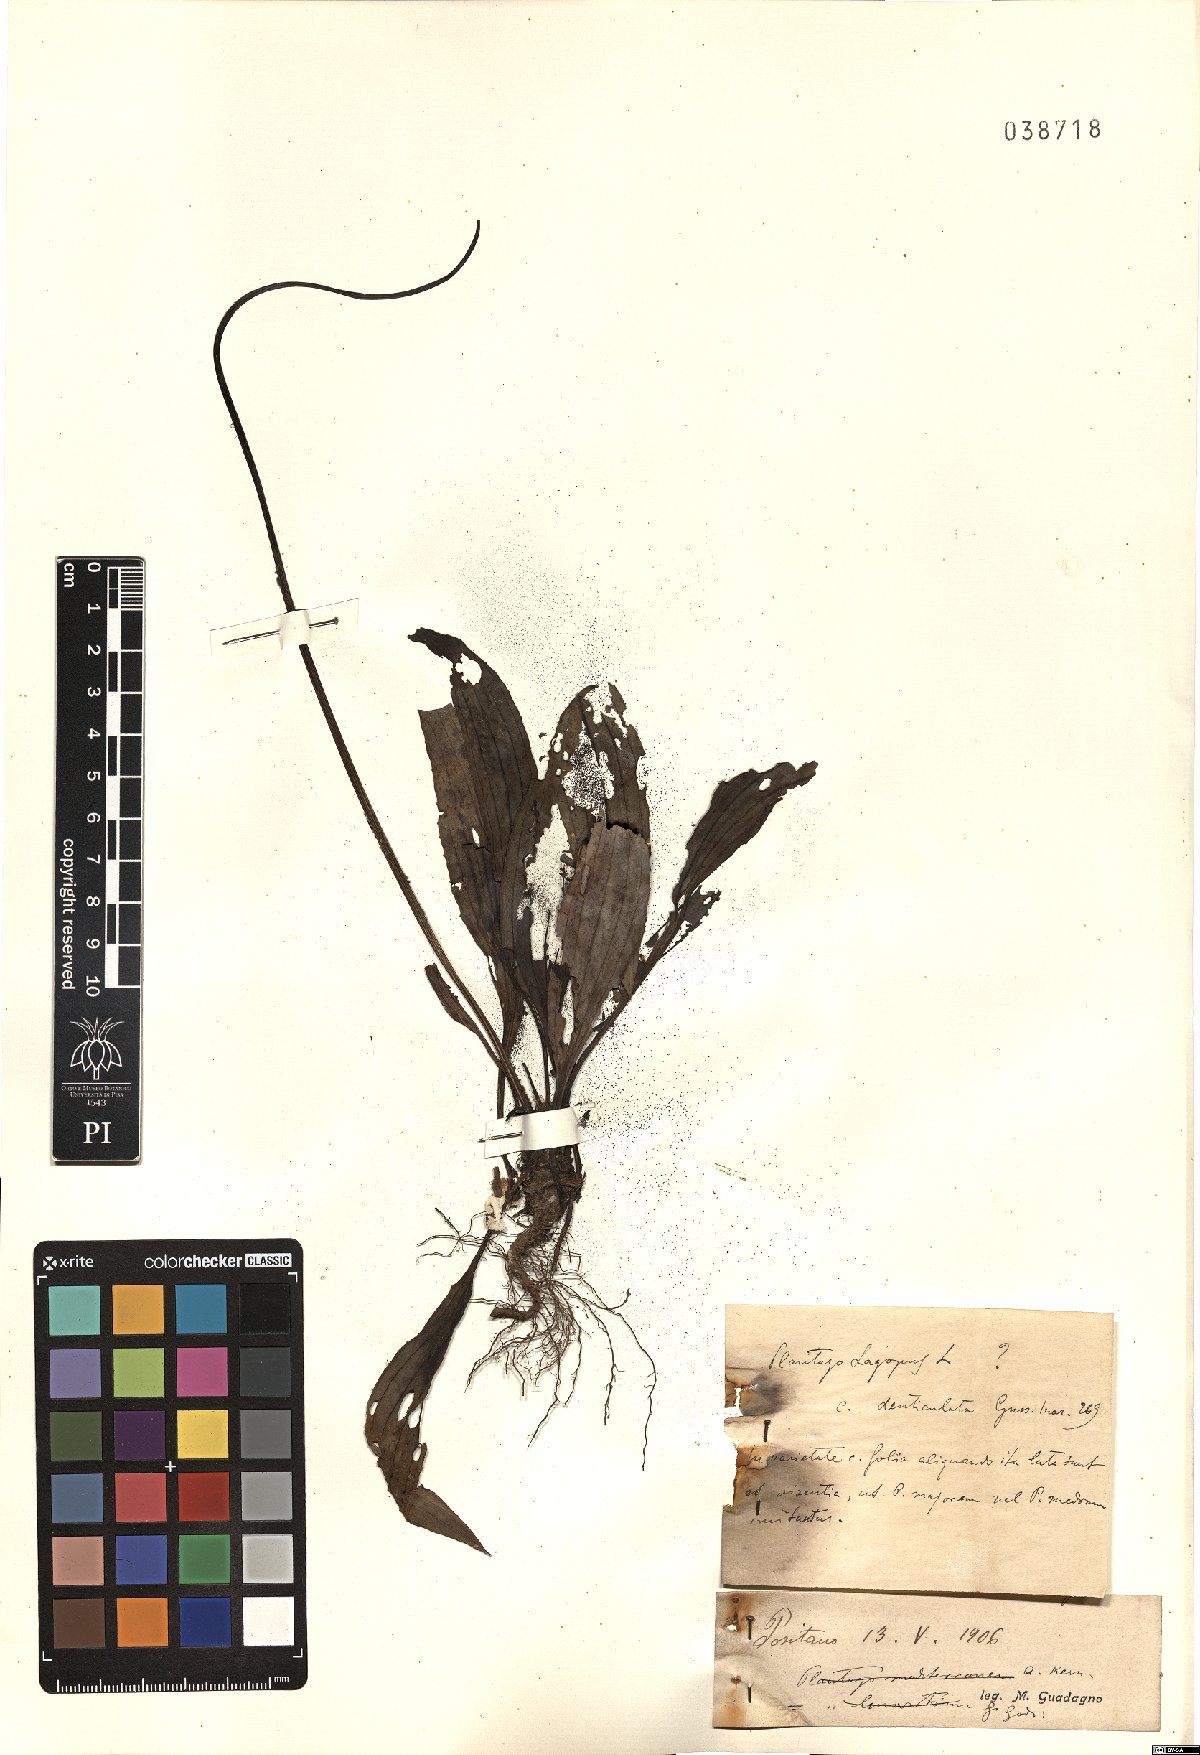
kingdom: Plantae
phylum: Tracheophyta
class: Magnoliopsida
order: Lamiales
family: Plantaginaceae
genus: Plantago
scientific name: Plantago lagopus
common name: Hare-foot plantain
